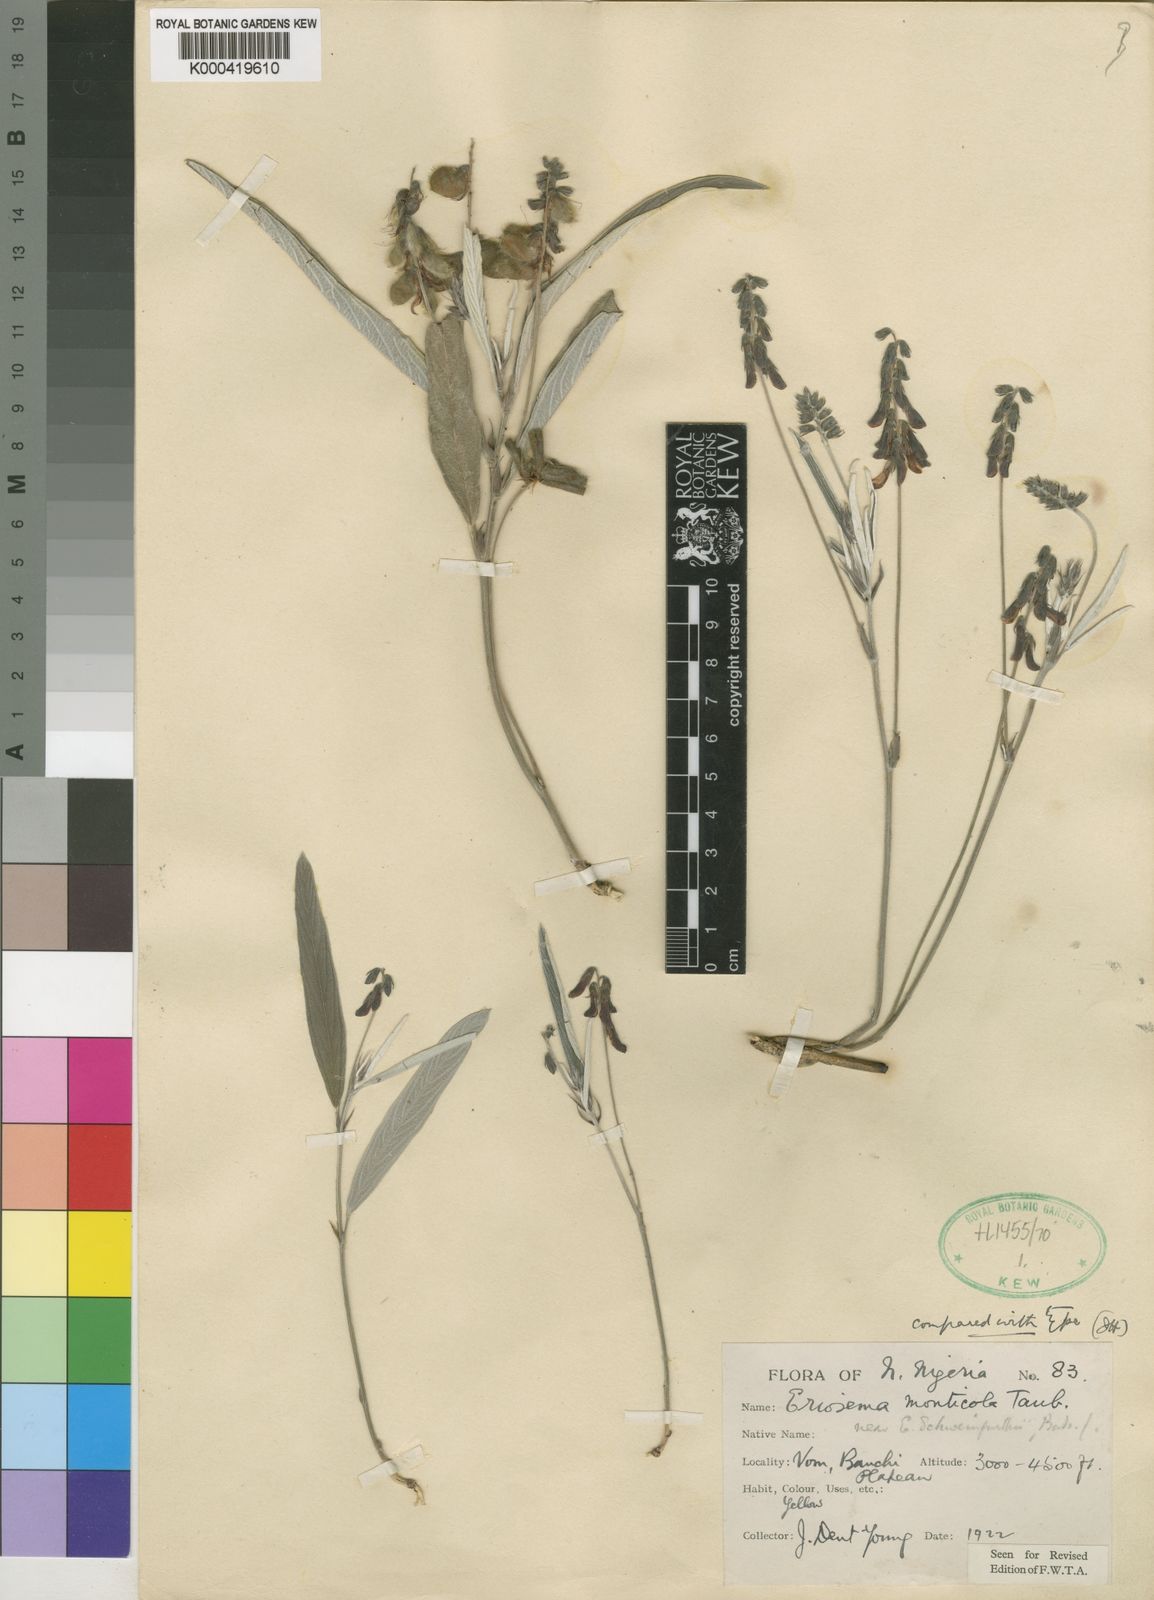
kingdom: Plantae
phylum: Tracheophyta
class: Magnoliopsida
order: Fabales
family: Fabaceae
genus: Eriosema
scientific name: Eriosema monticola
